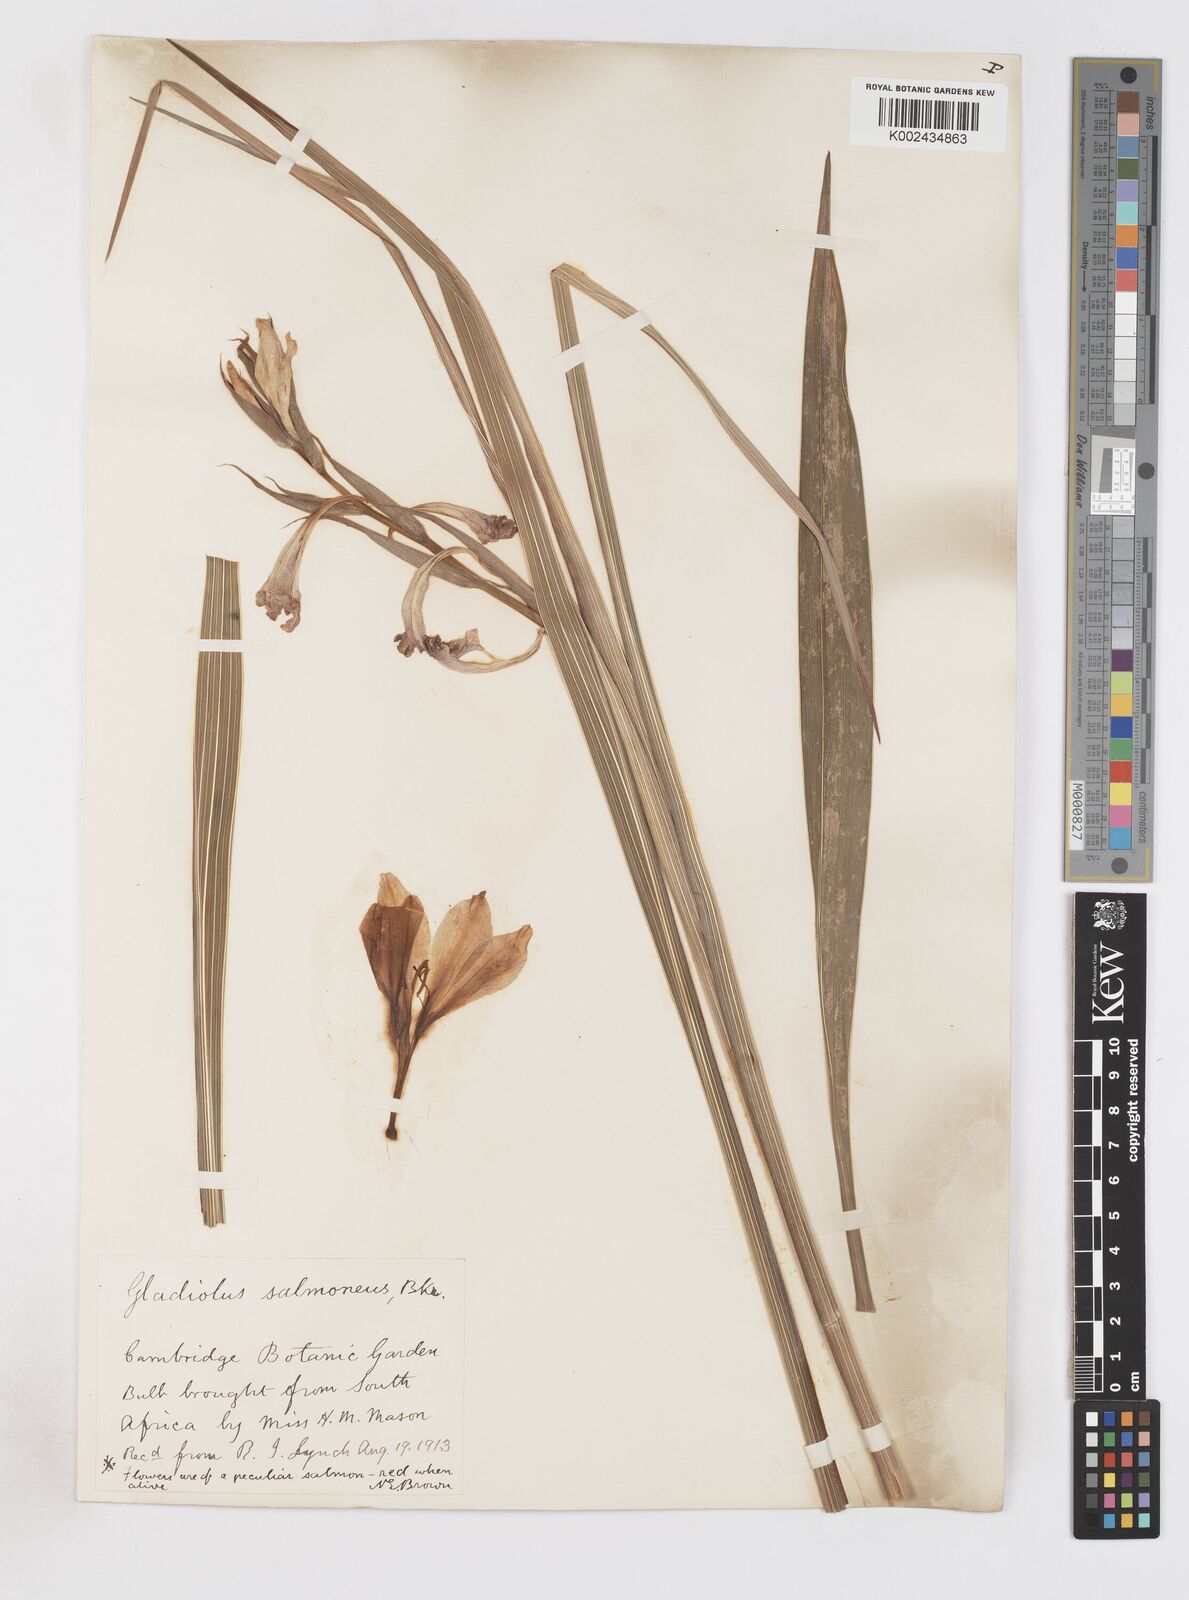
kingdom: Plantae
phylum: Tracheophyta
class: Liliopsida
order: Asparagales
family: Iridaceae
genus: Gladiolus
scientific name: Gladiolus oppositiflorus
